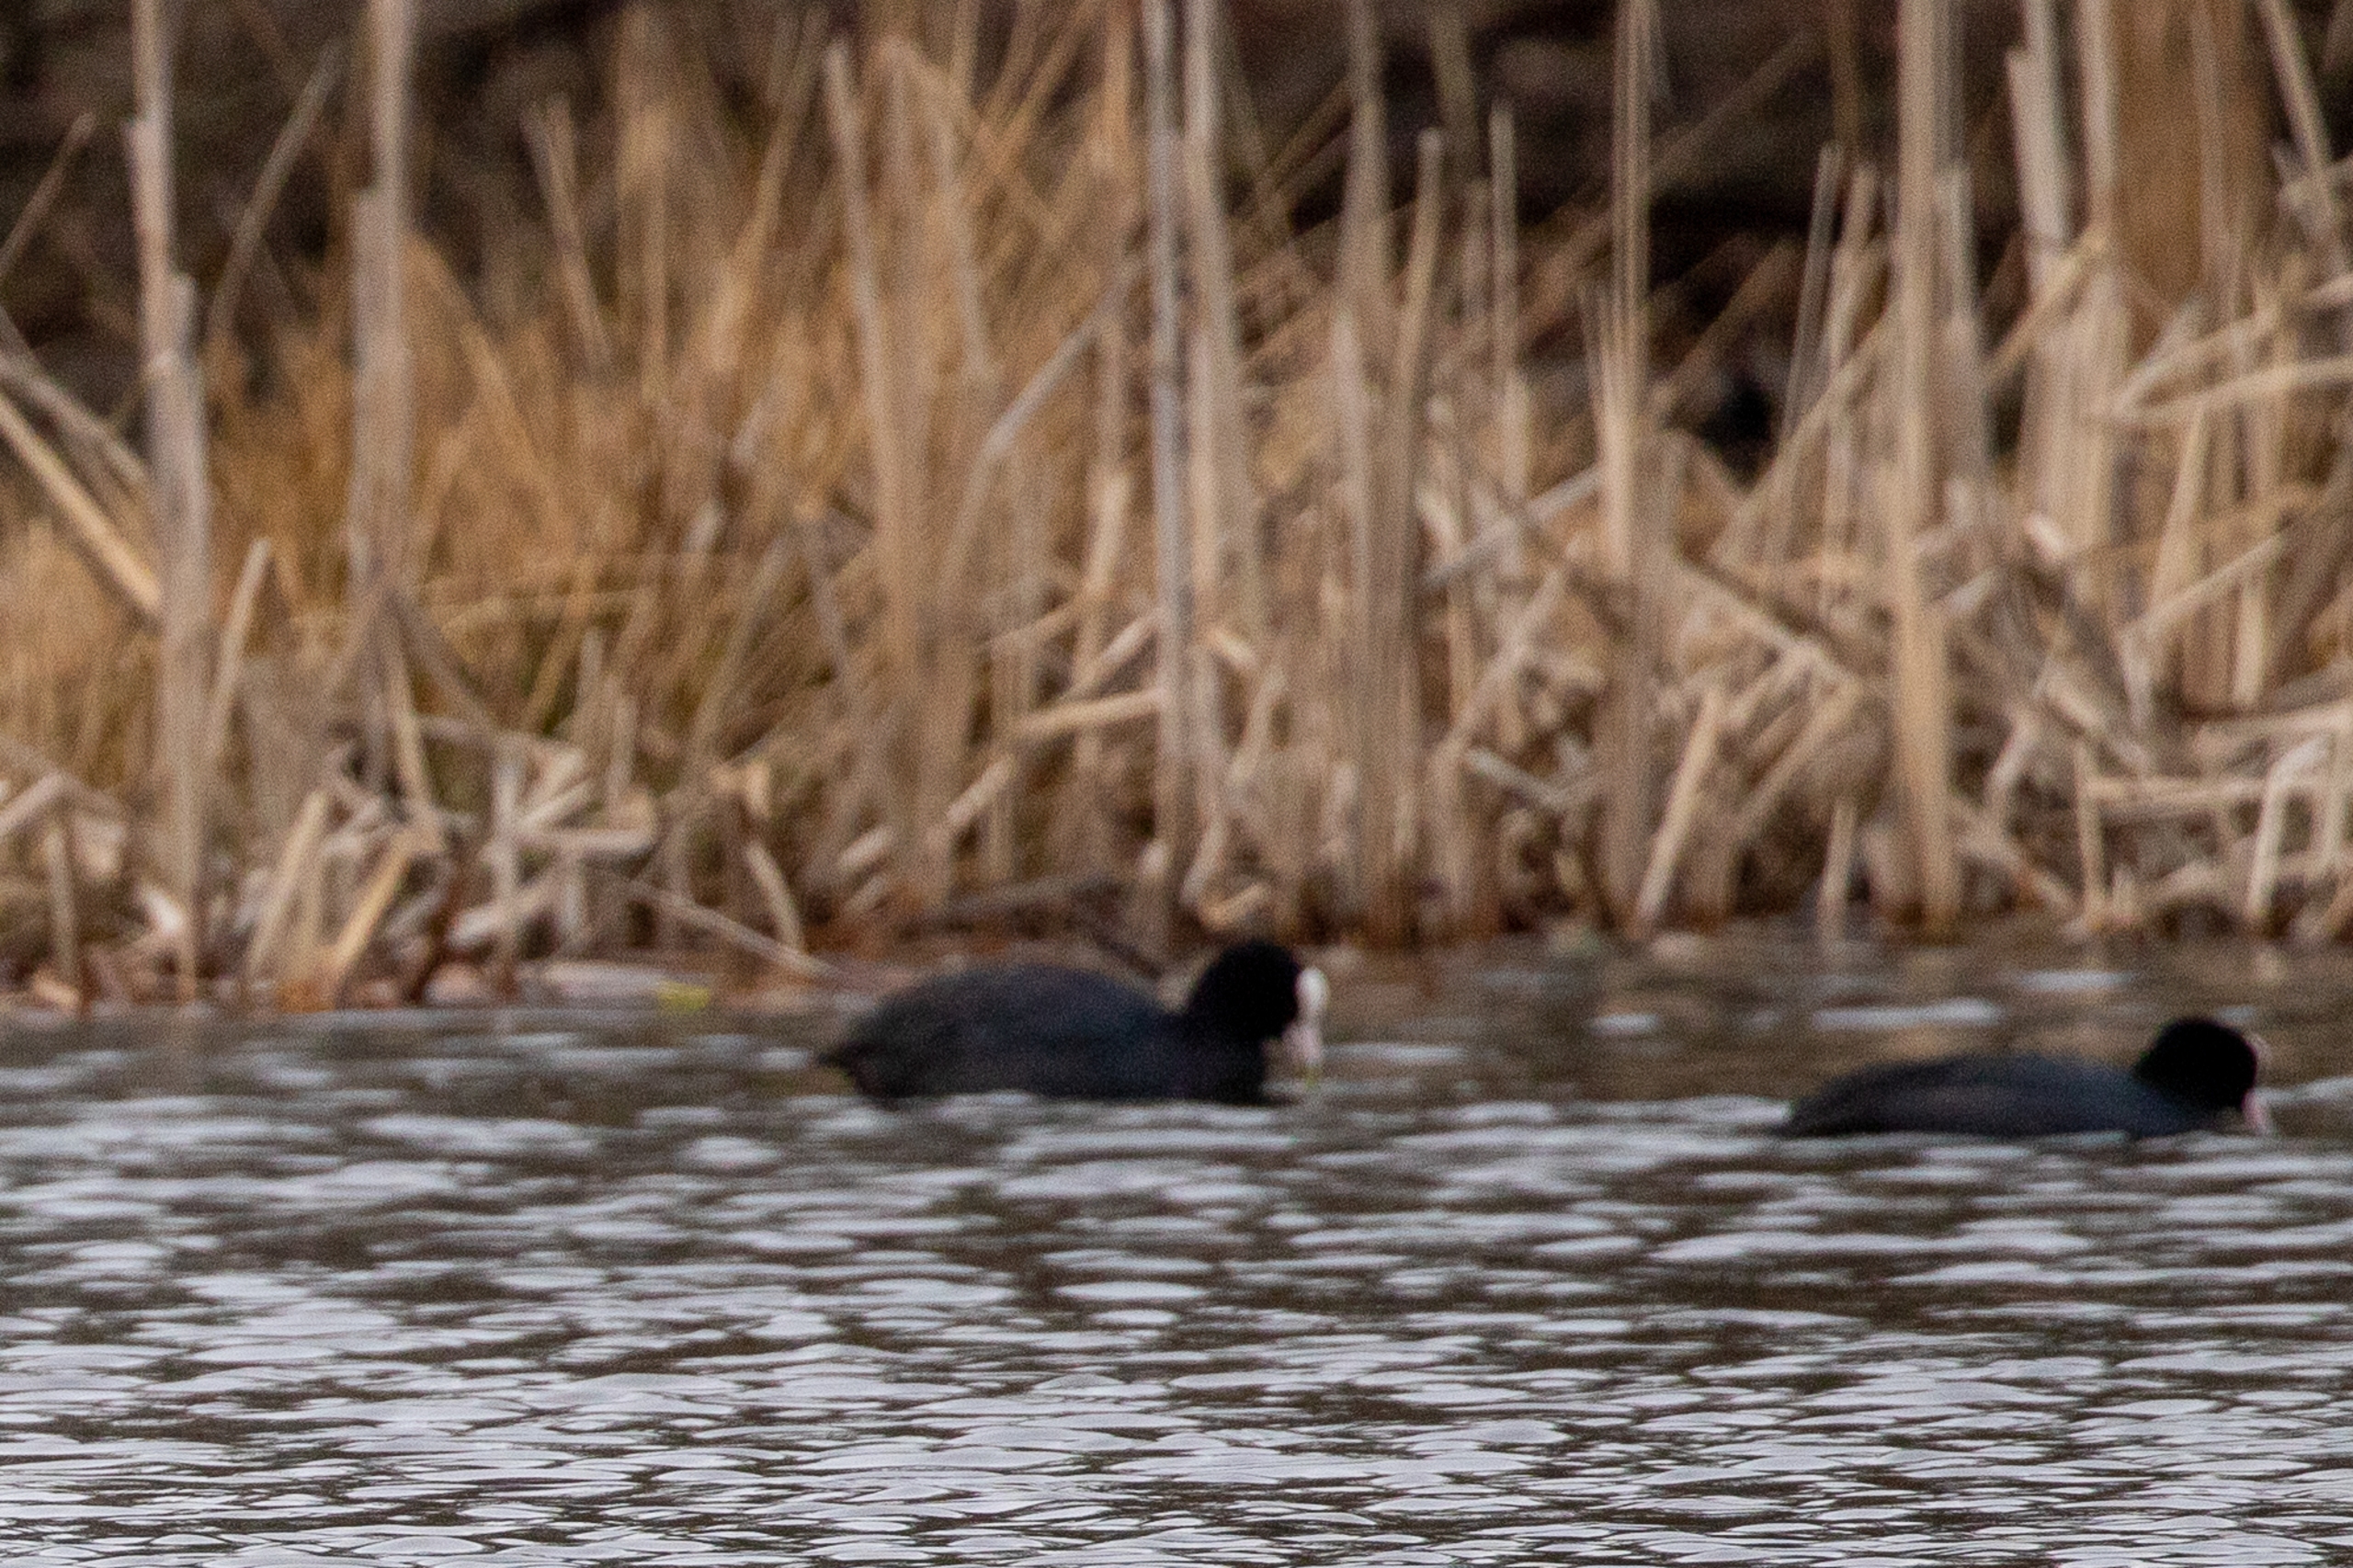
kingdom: Animalia
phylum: Chordata
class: Aves
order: Gruiformes
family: Rallidae
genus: Fulica
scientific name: Fulica atra
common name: Blishøne
